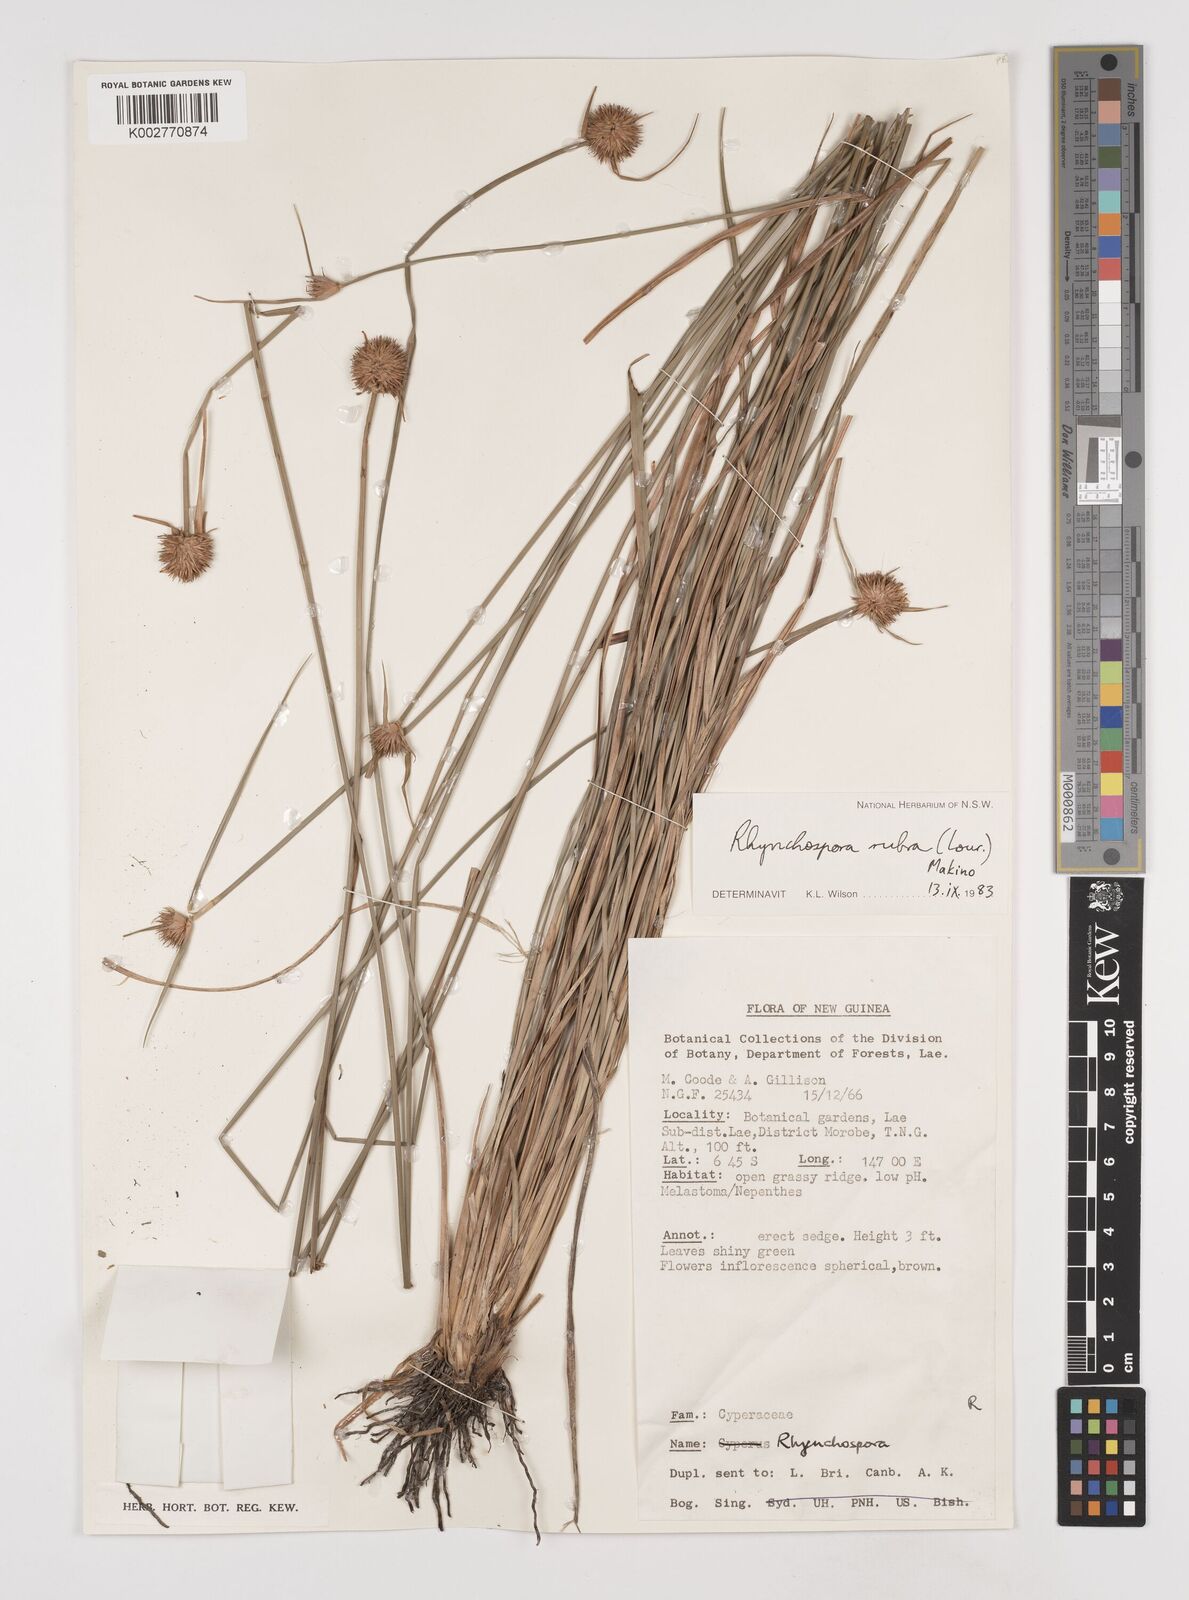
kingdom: Plantae
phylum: Tracheophyta
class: Liliopsida
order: Poales
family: Cyperaceae
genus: Rhynchospora
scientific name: Rhynchospora rubra
